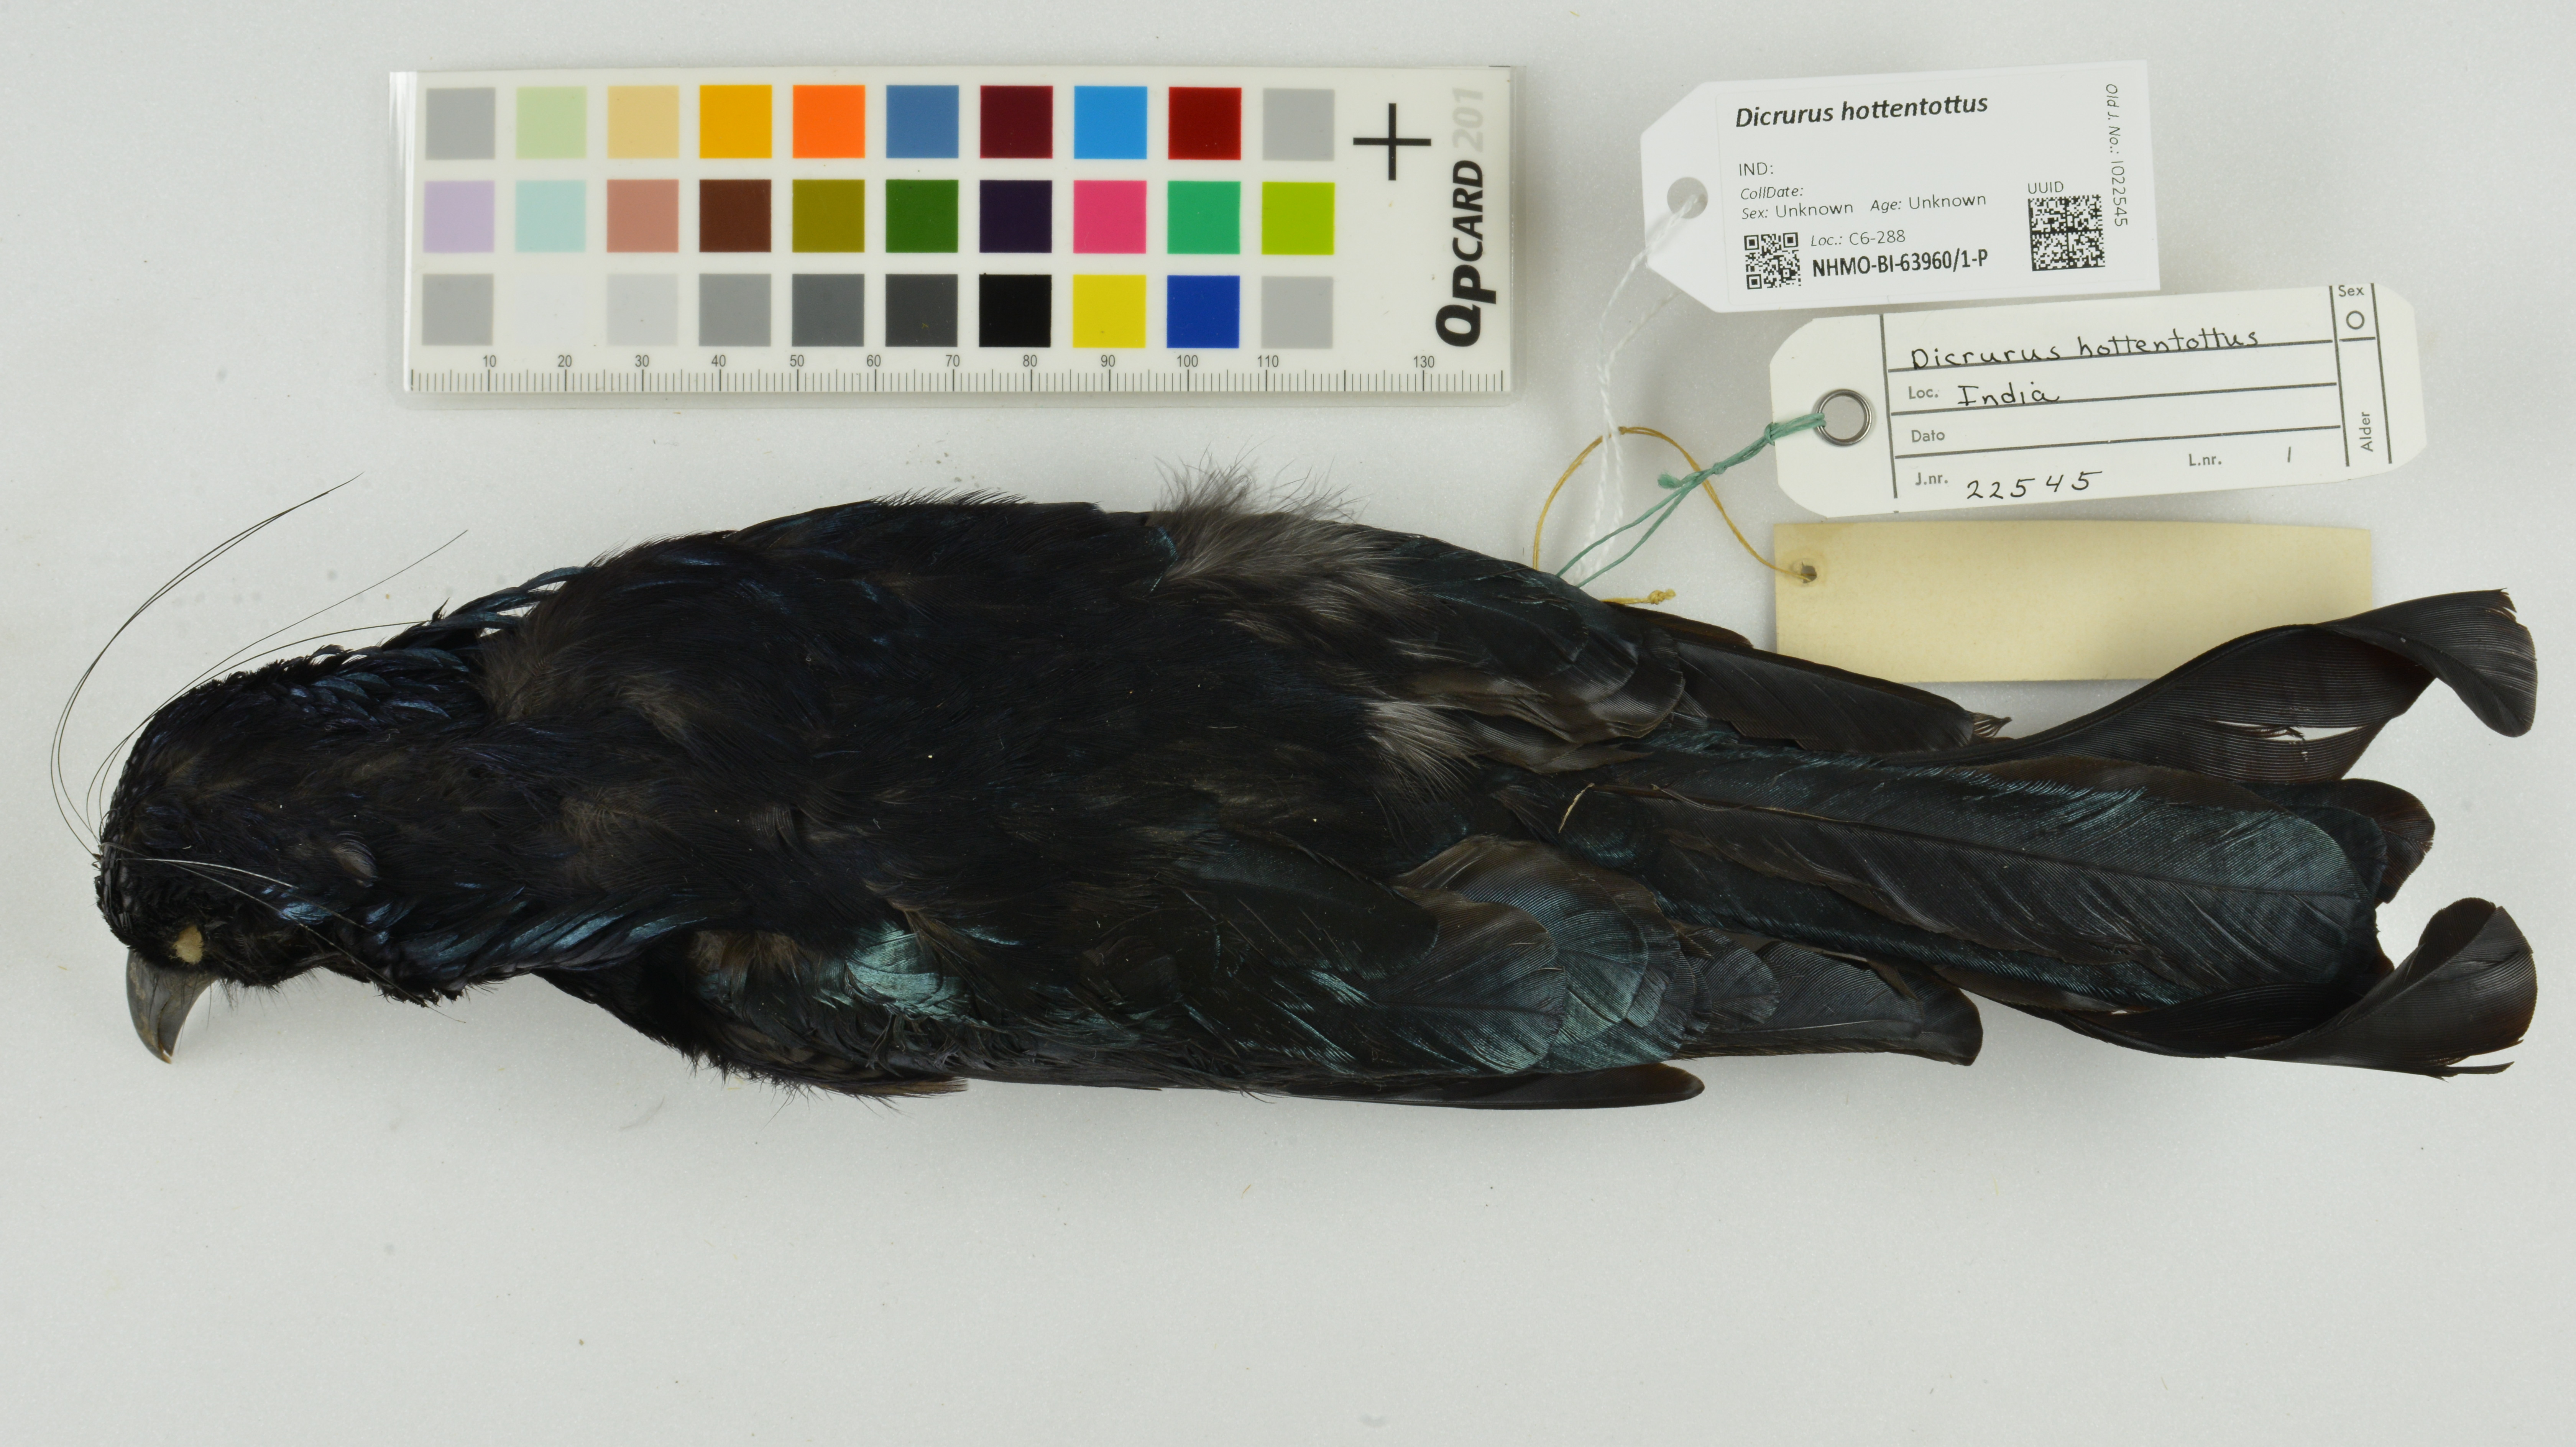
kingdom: Animalia
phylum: Chordata
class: Aves
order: Passeriformes
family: Dicruridae
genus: Dicrurus
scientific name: Dicrurus hottentottus
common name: Hair-crested drongo
